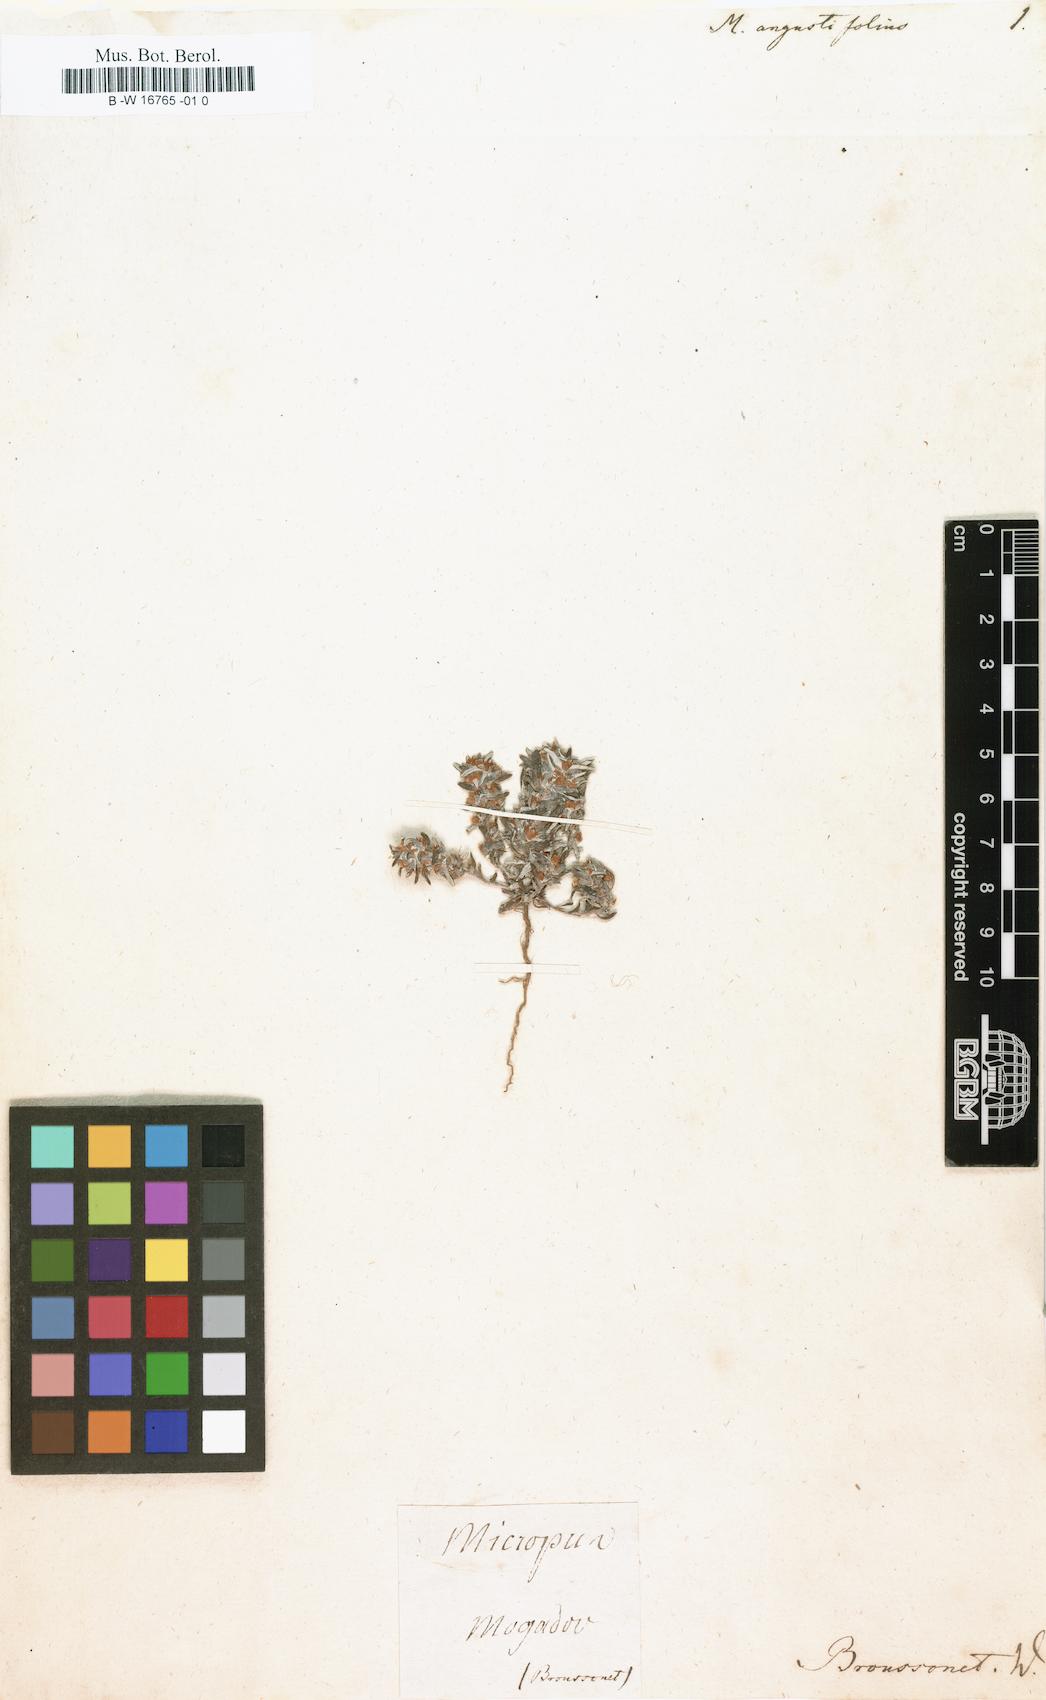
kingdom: Plantae
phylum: Tracheophyta
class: Magnoliopsida
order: Asterales
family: Asteraceae
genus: Bombycilaena
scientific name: Bombycilaena californica
